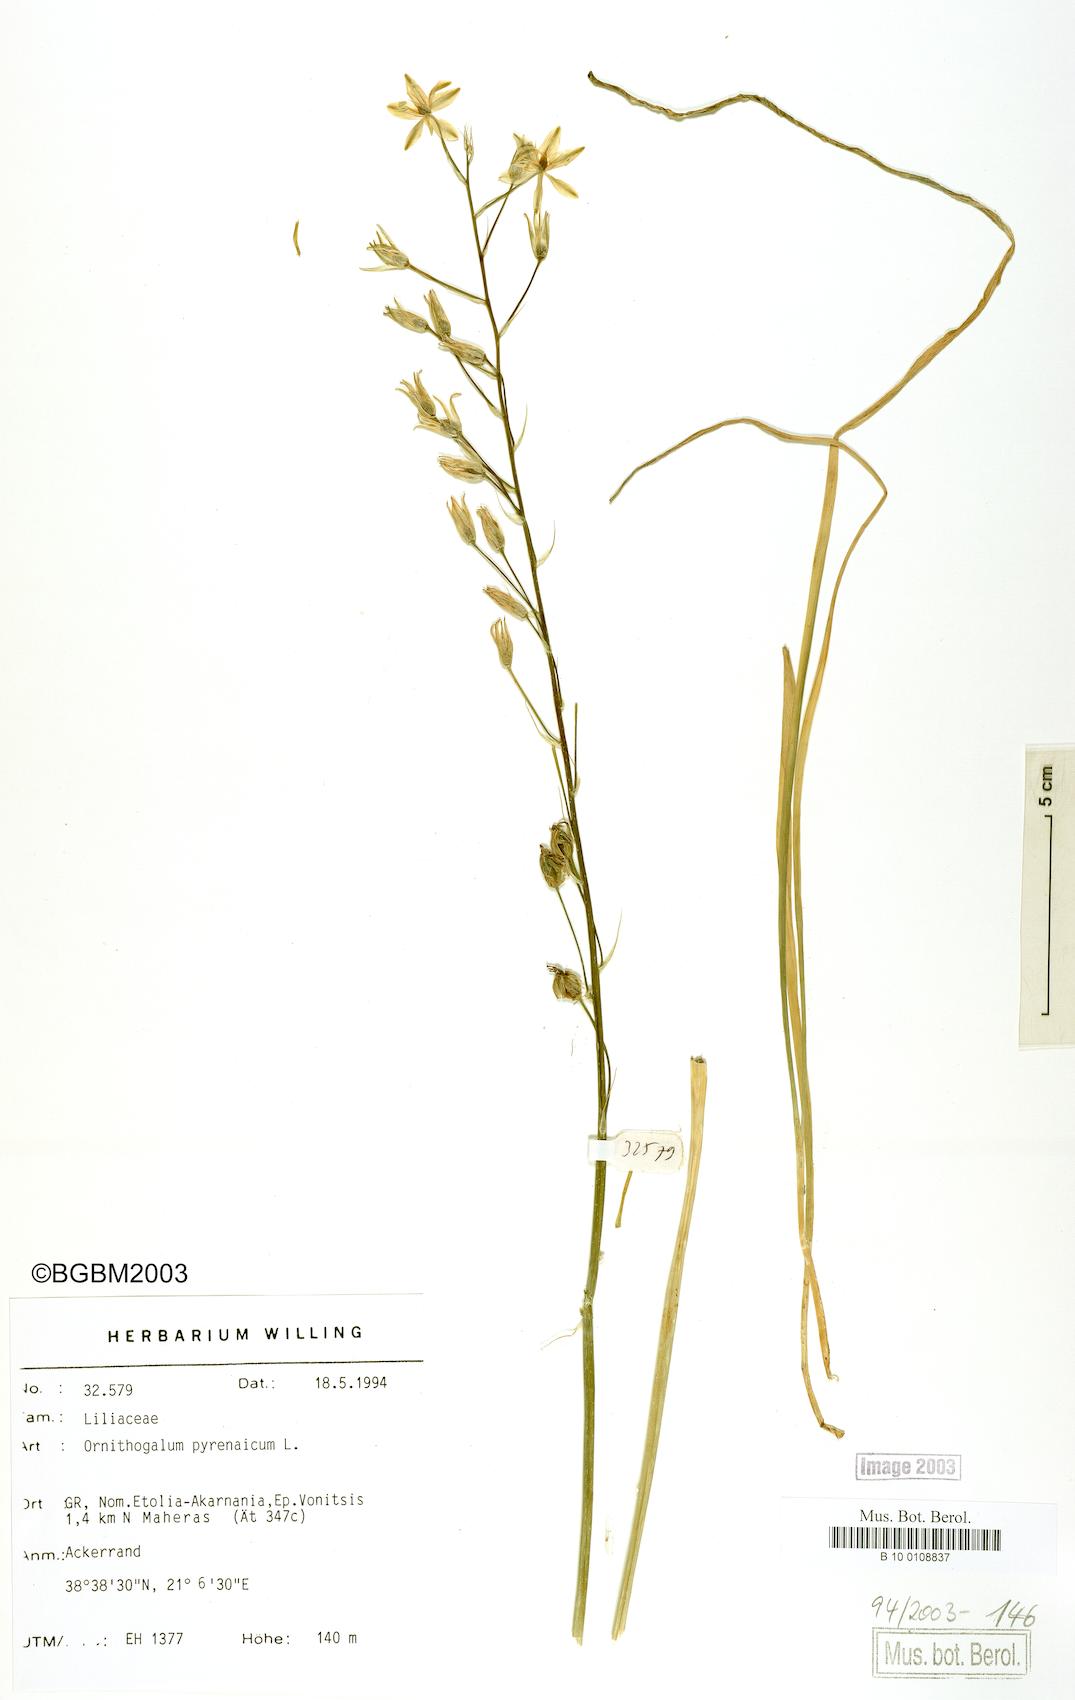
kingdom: Plantae
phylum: Tracheophyta
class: Liliopsida
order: Asparagales
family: Asparagaceae
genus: Ornithogalum
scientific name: Ornithogalum pyrenaicum
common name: Spiked star-of-bethlehem
